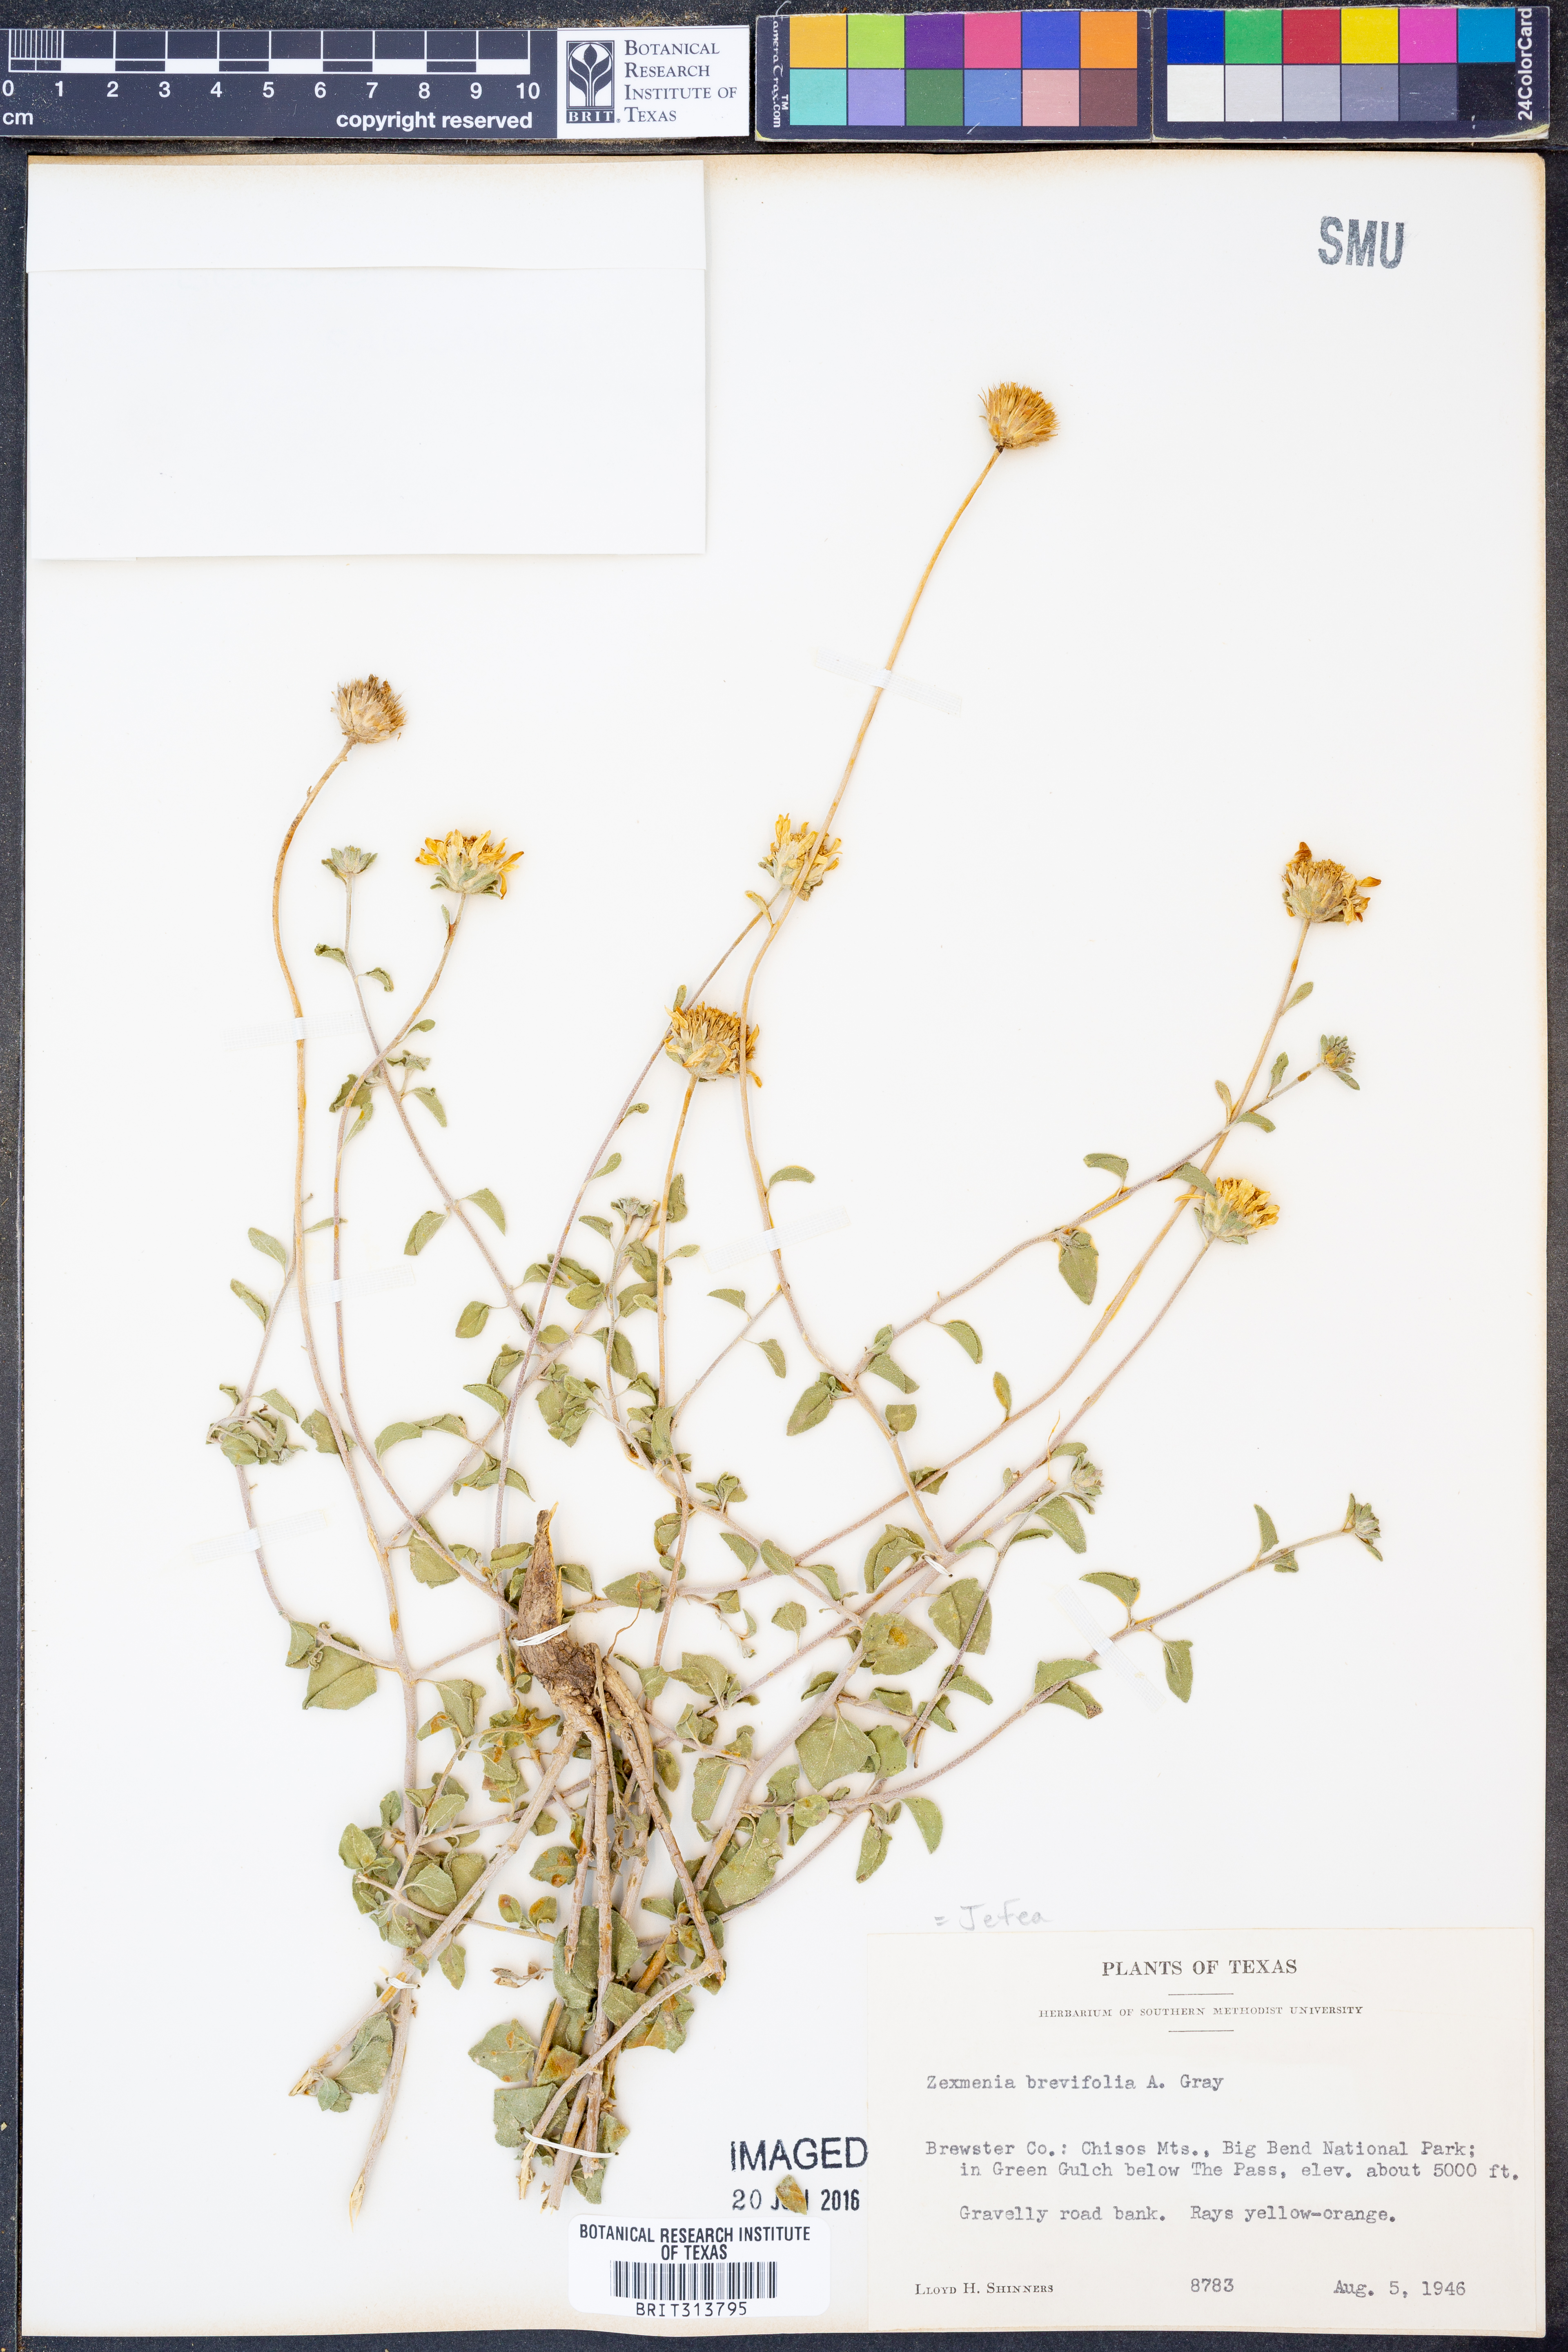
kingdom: Plantae
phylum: Tracheophyta
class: Magnoliopsida
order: Asterales
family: Asteraceae
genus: Jefea
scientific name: Jefea brevifolia
